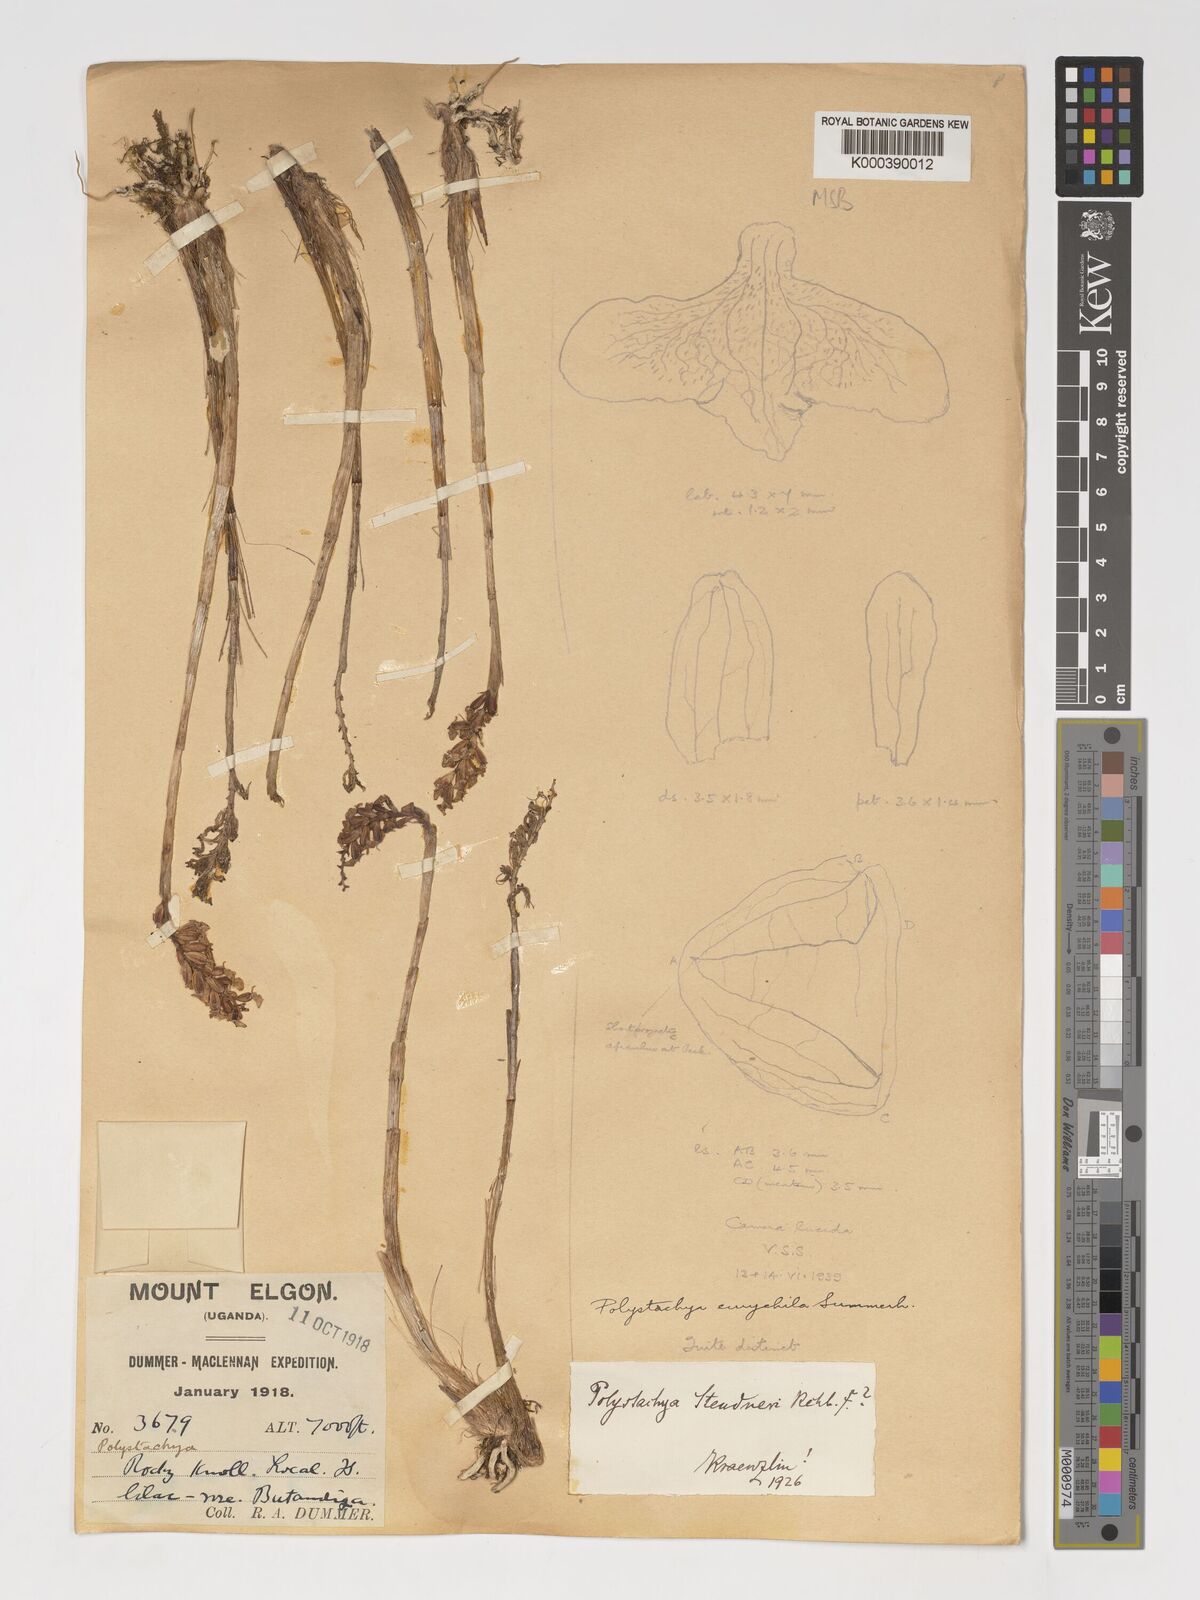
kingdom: Plantae
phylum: Tracheophyta
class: Liliopsida
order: Asparagales
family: Orchidaceae
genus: Polystachya
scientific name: Polystachya eurychila
